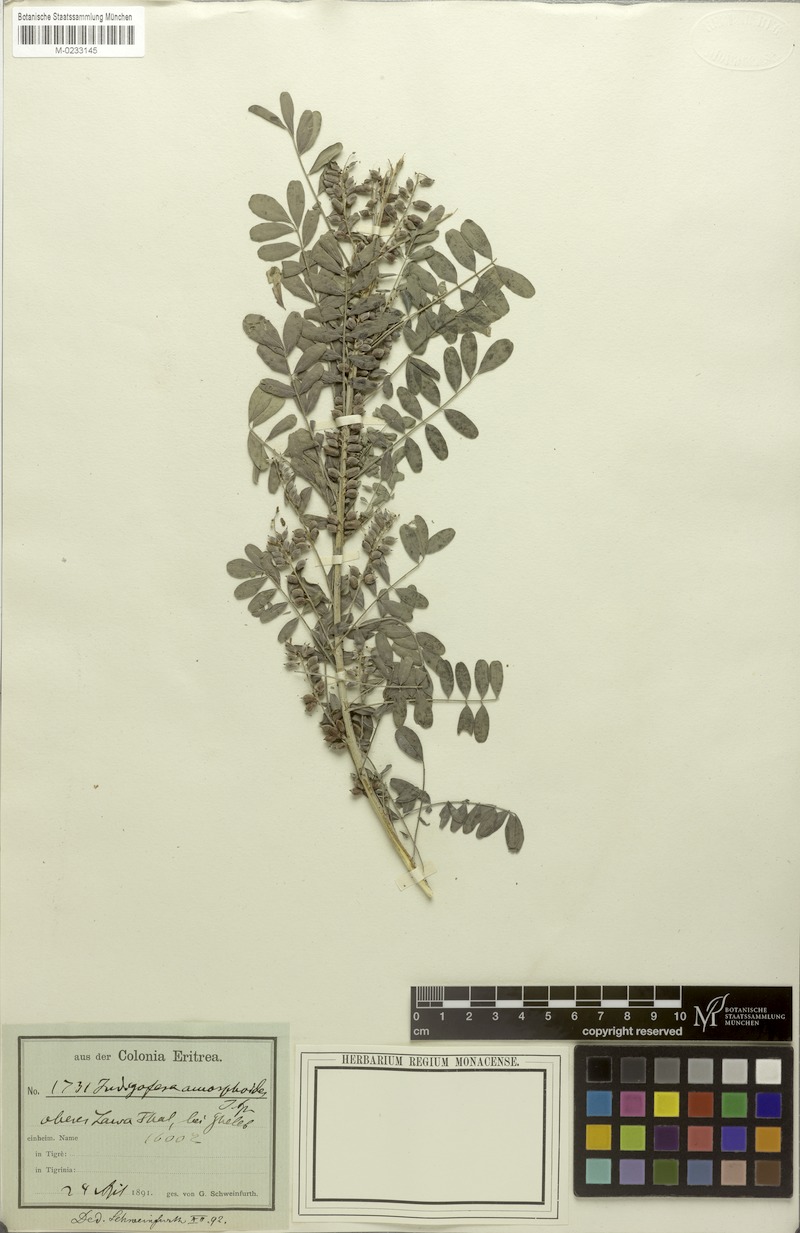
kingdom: Plantae
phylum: Tracheophyta
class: Magnoliopsida
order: Fabales
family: Fabaceae
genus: Indigofera
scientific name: Indigofera amorphoides
